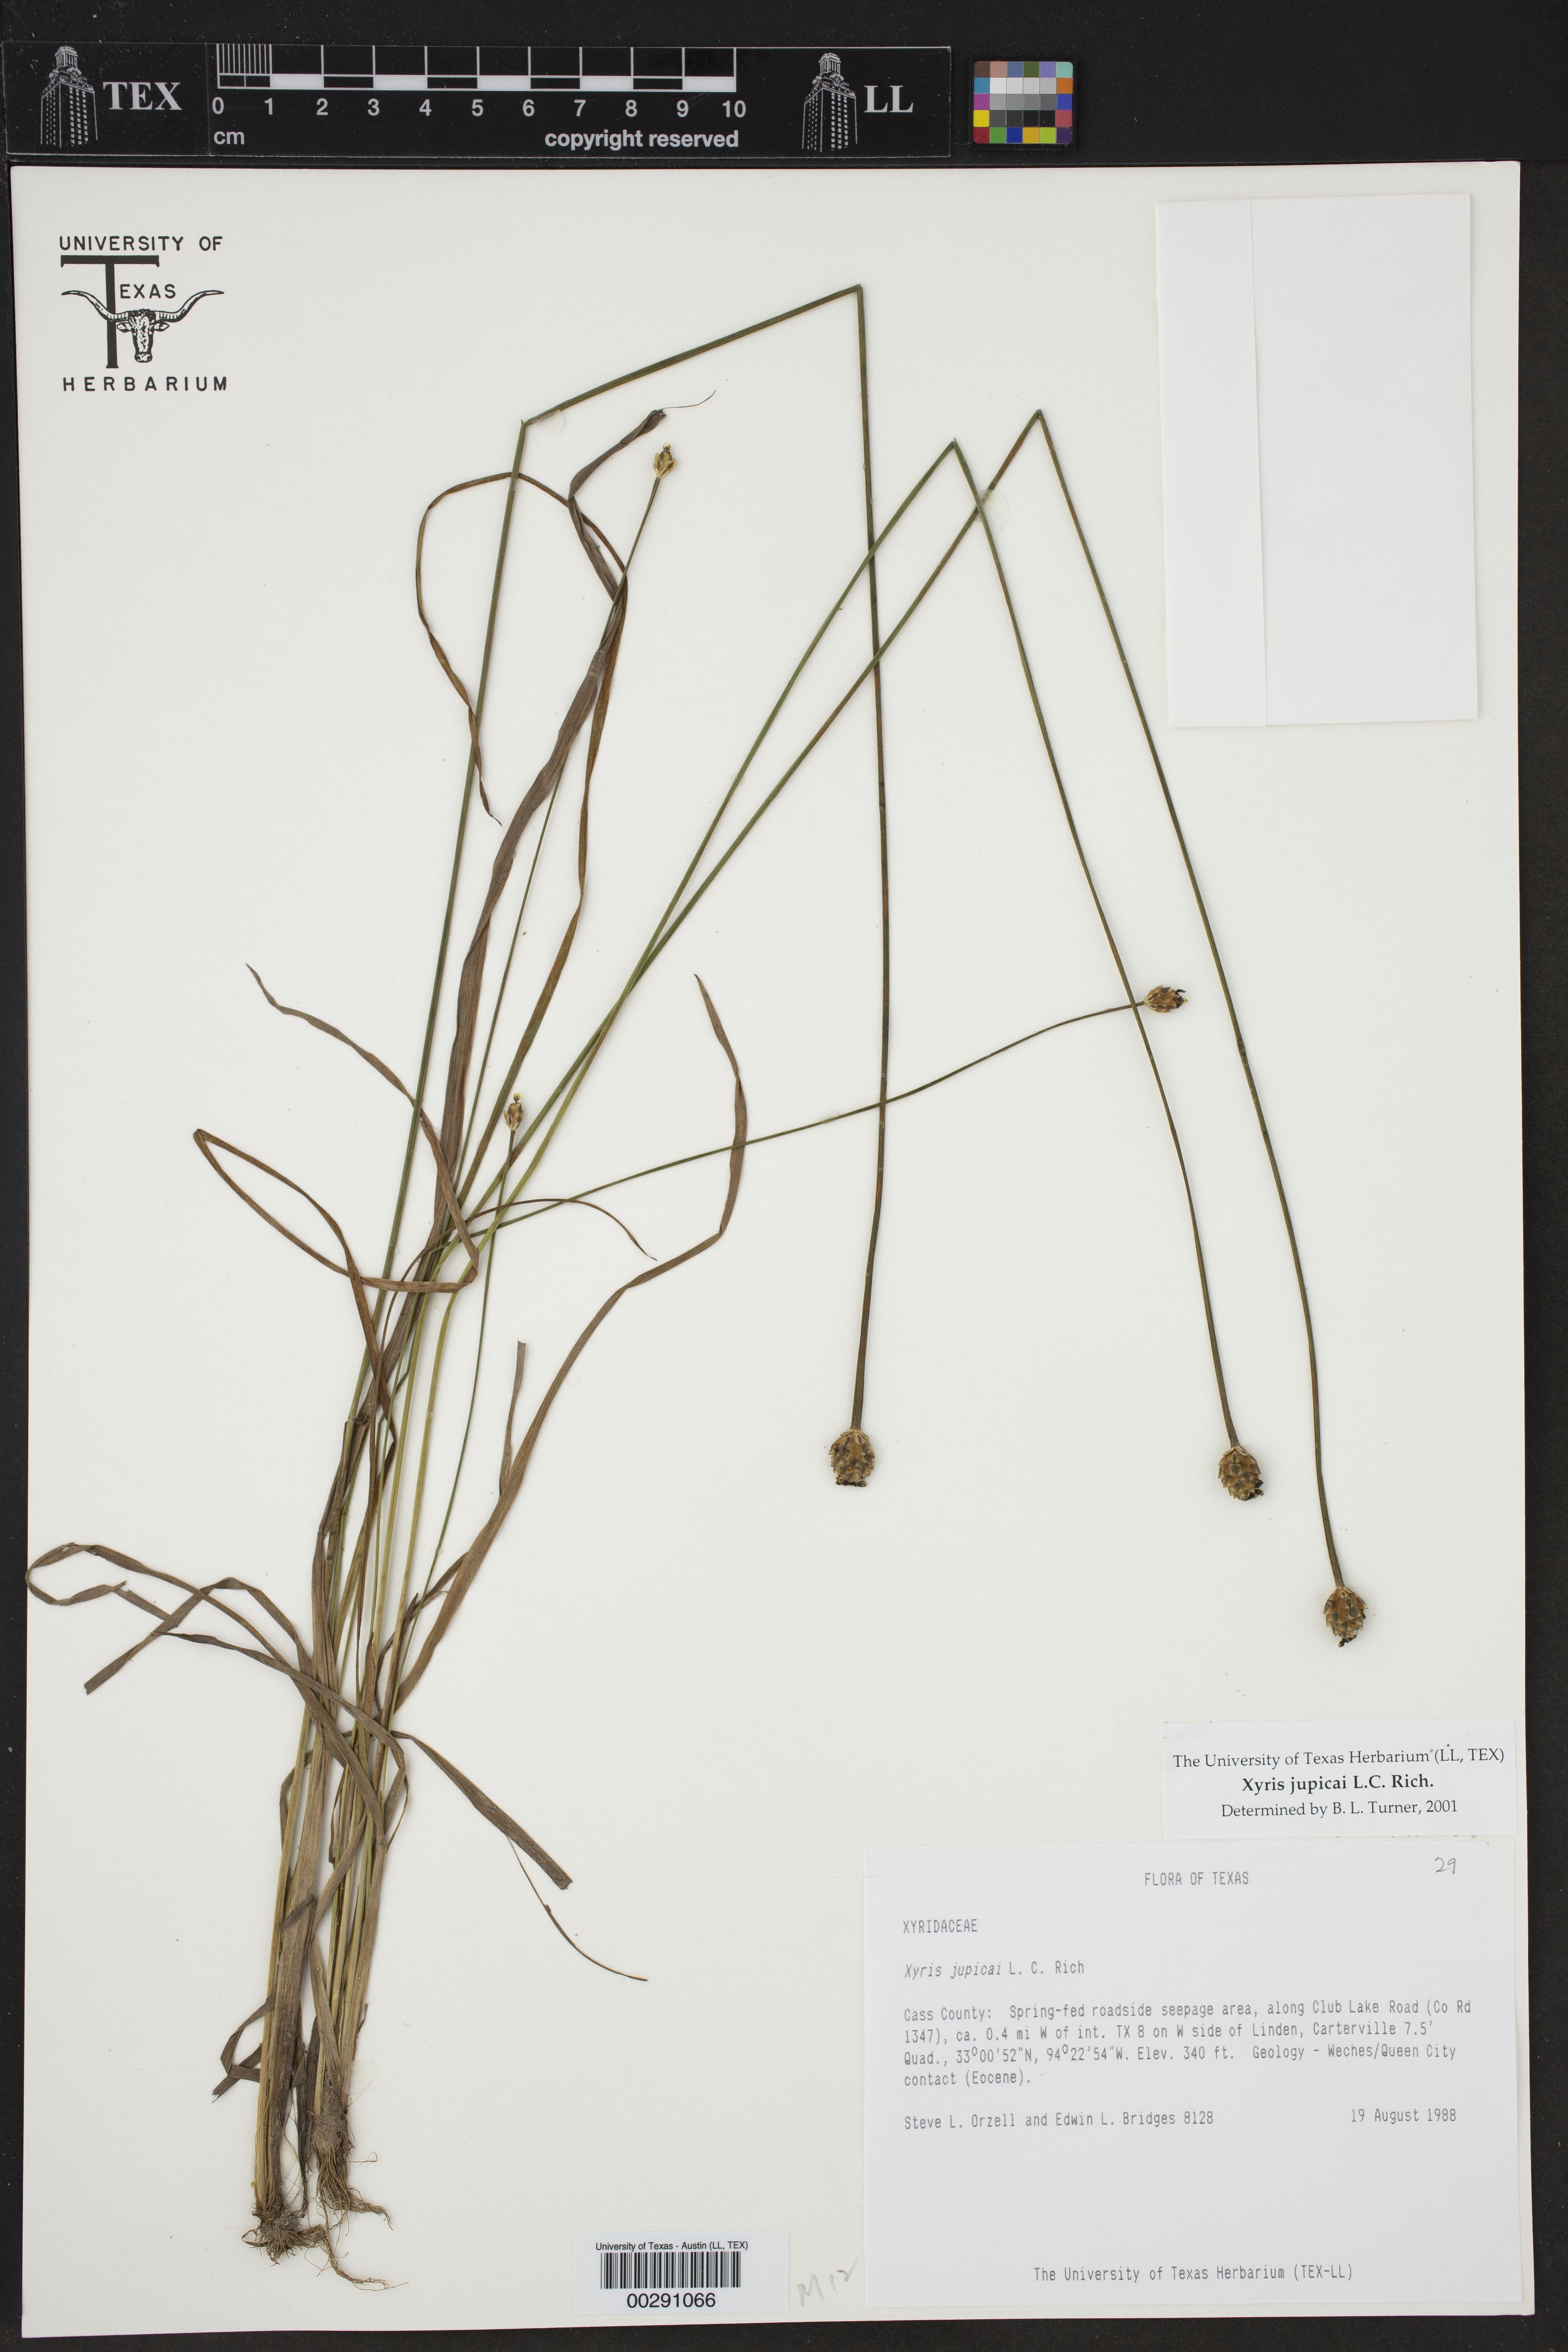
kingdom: Plantae
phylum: Tracheophyta
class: Liliopsida
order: Poales
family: Xyridaceae
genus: Xyris
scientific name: Xyris jupicai
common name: Richard's yelloweyed grass
